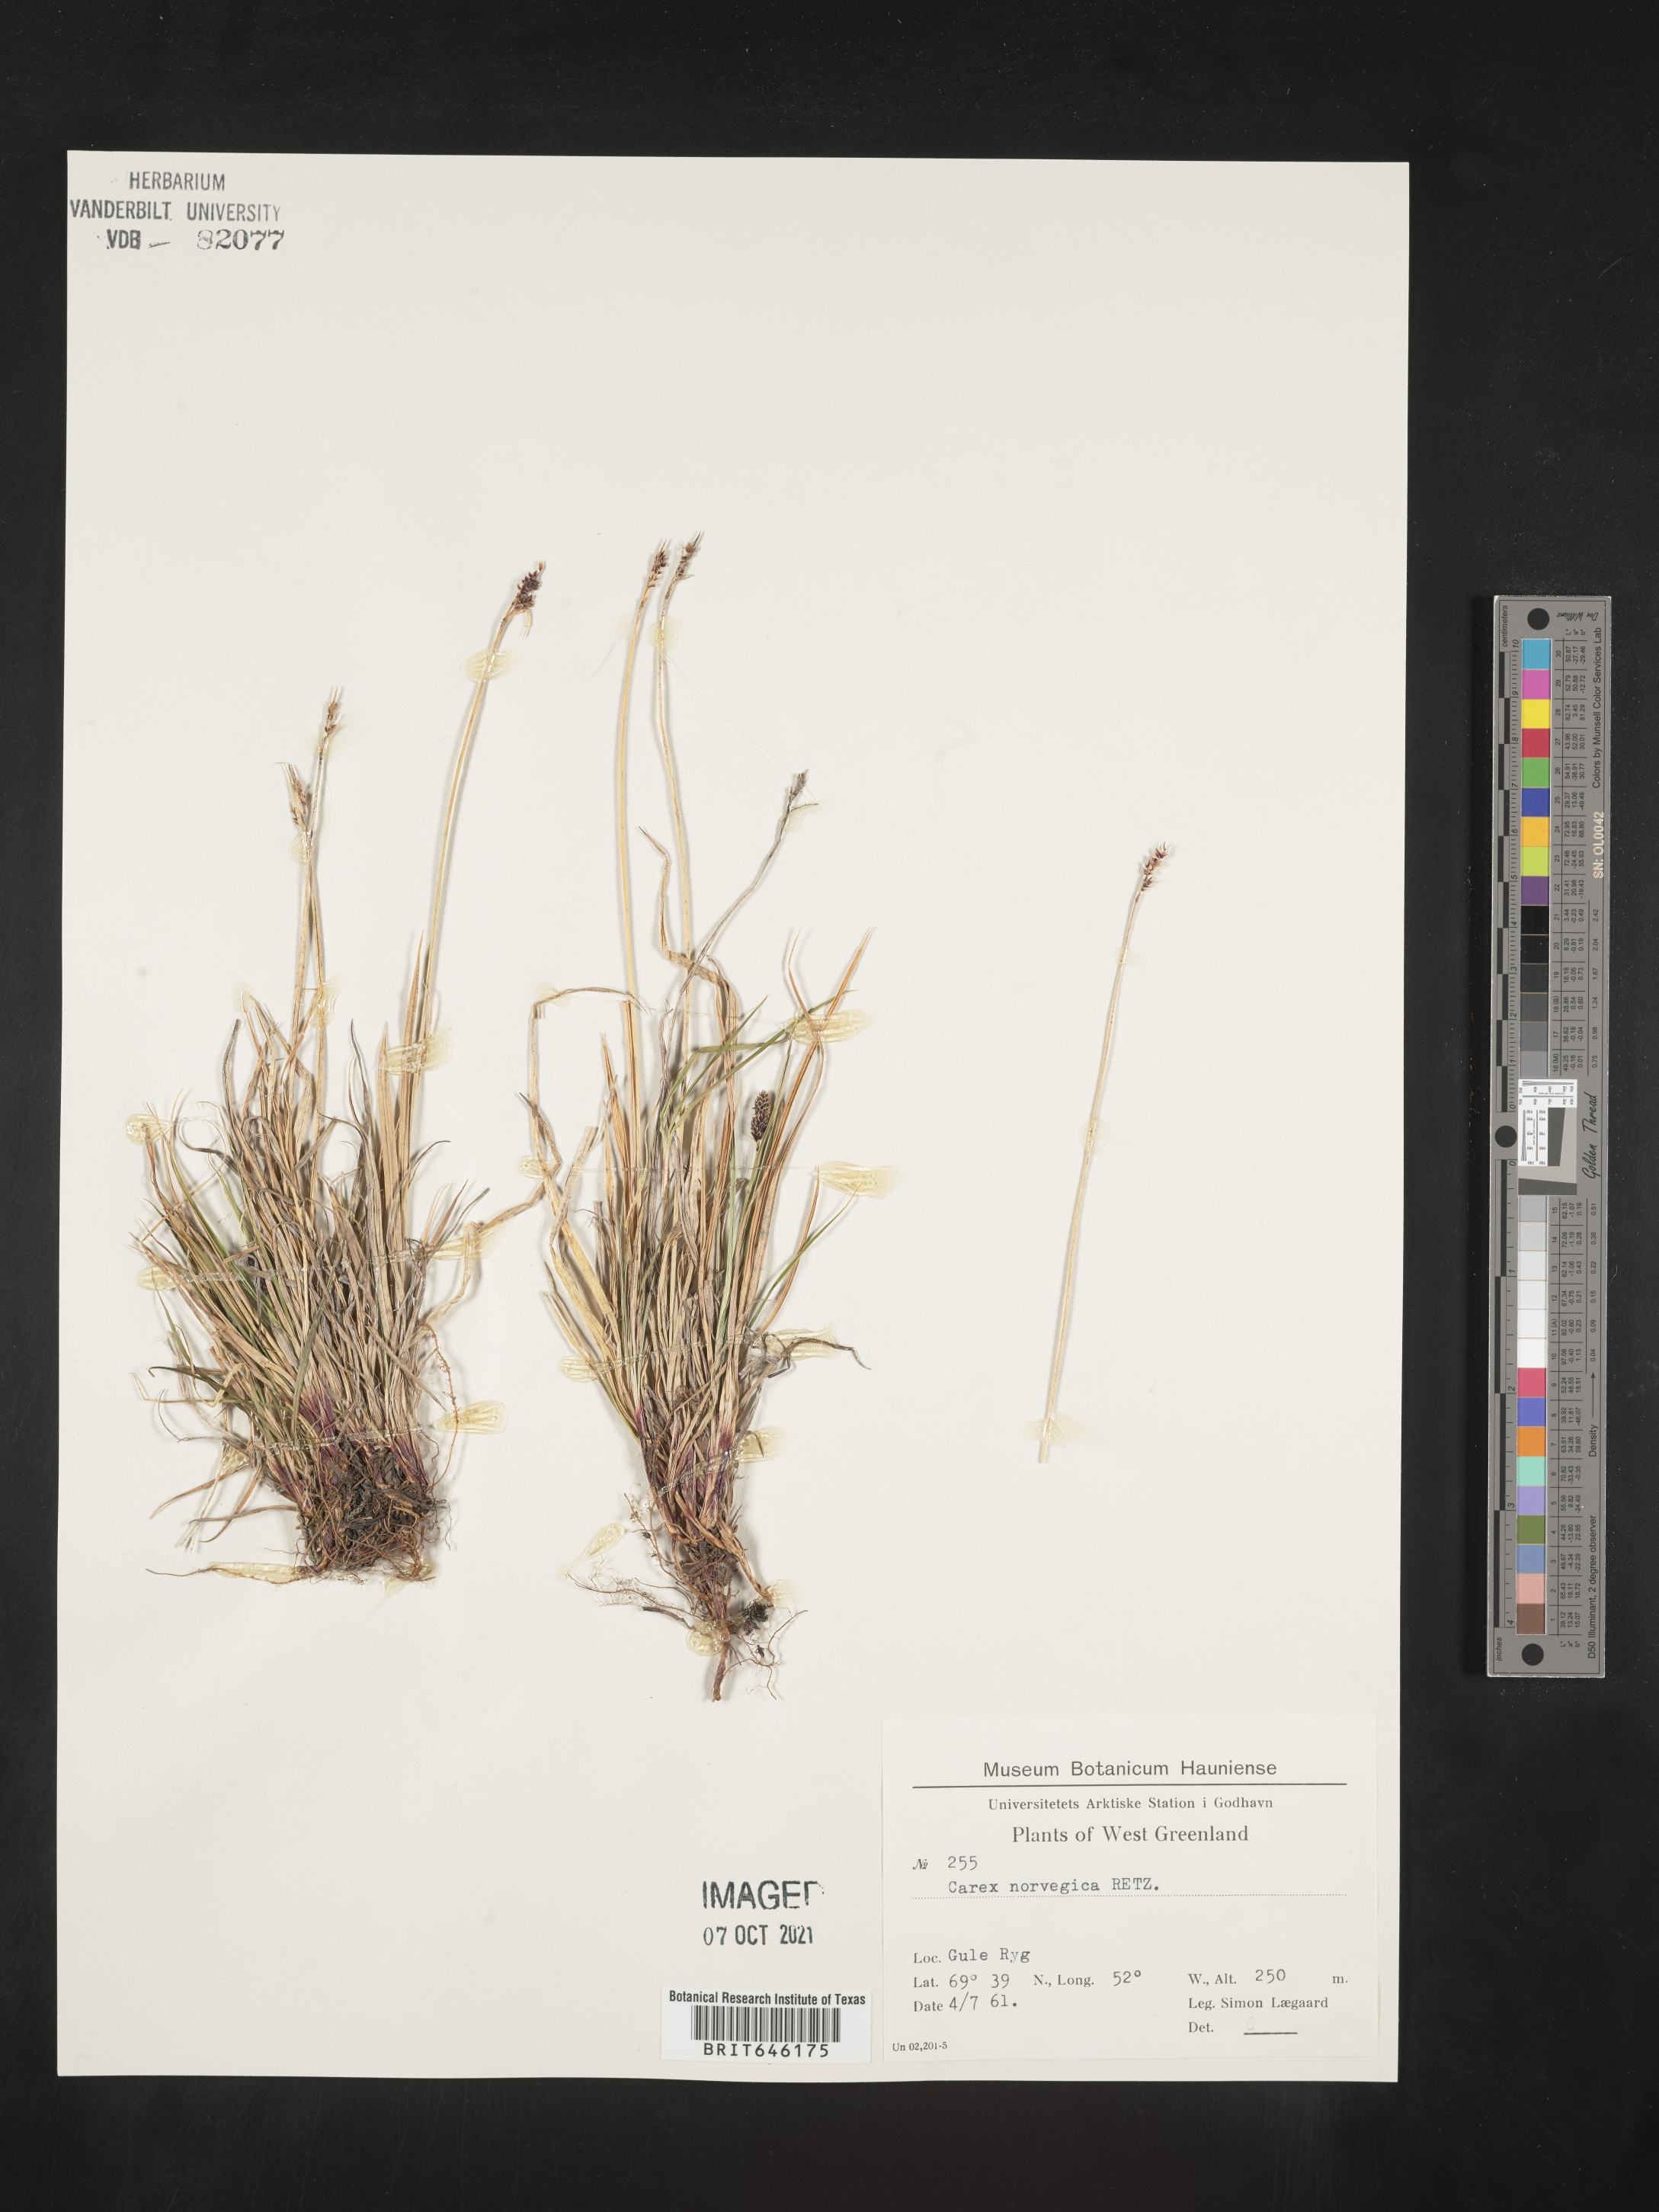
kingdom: Plantae
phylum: Tracheophyta
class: Liliopsida
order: Poales
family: Cyperaceae
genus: Carex
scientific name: Carex norvegica
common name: Close-headed alpine-sedge
